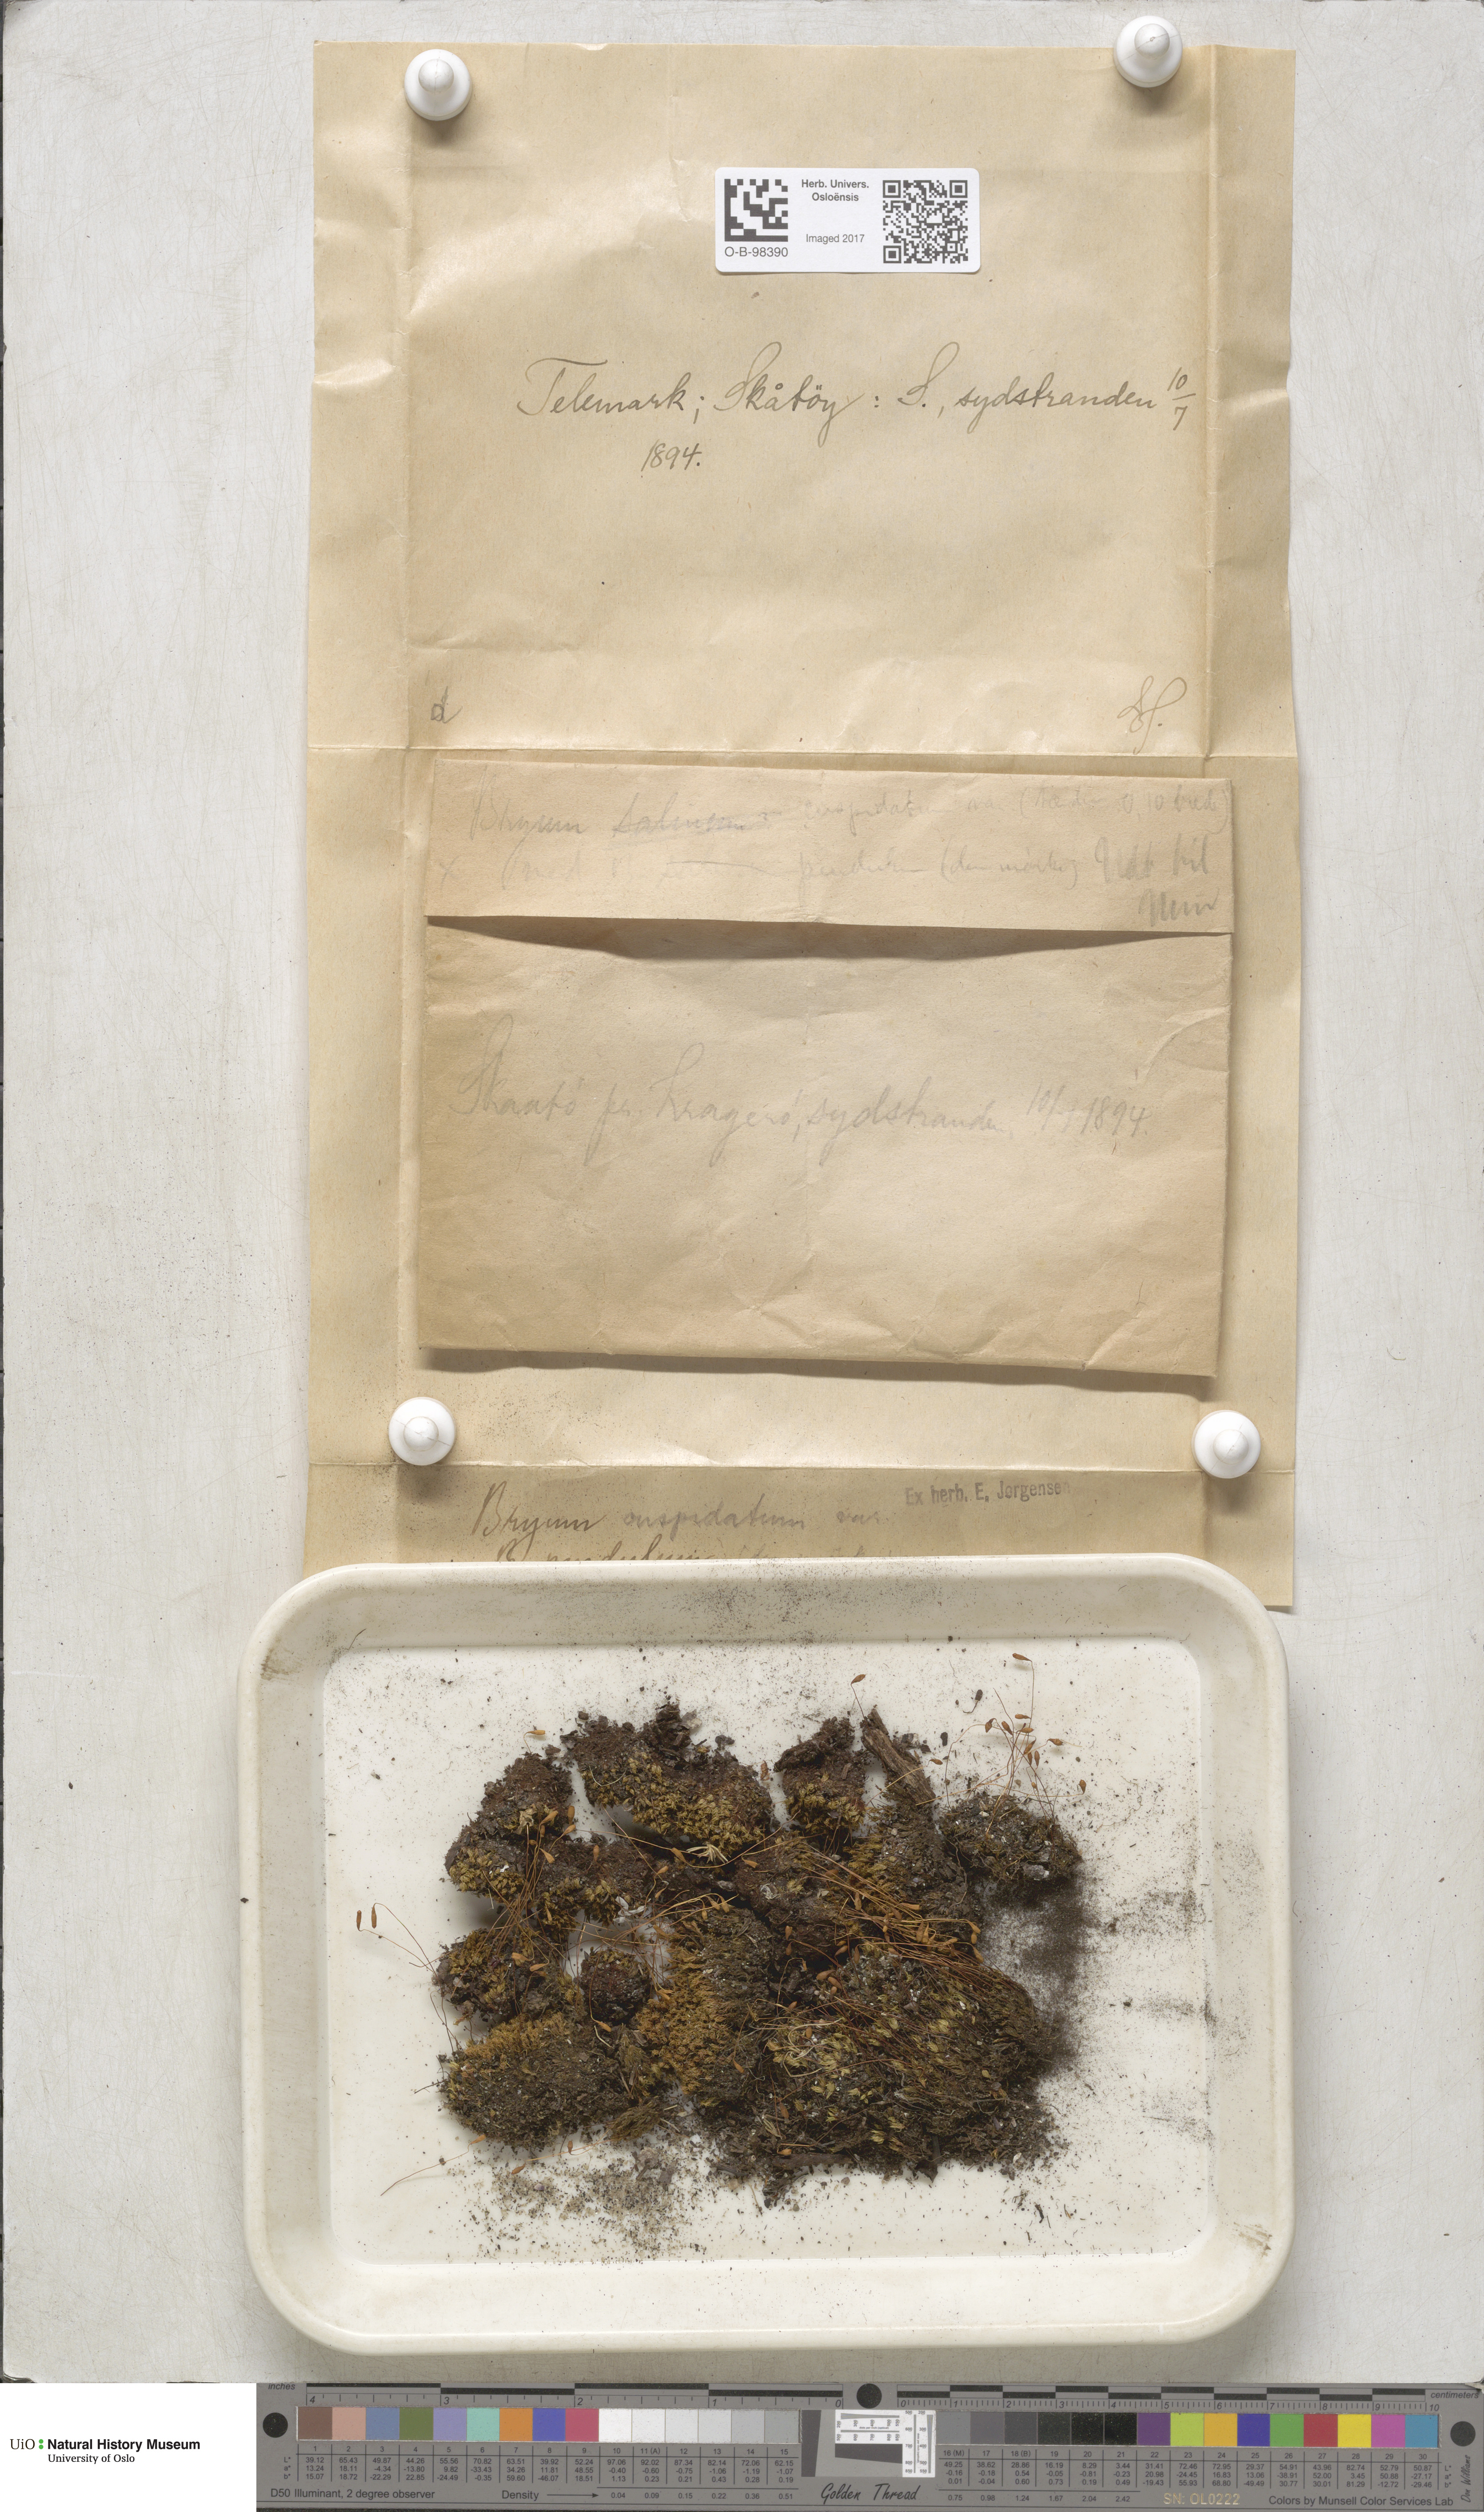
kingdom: Plantae
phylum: Bryophyta
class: Bryopsida
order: Bryales
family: Mniaceae
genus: Plagiomnium
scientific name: Plagiomnium cuspidatum
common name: Woodsy leafy moss
